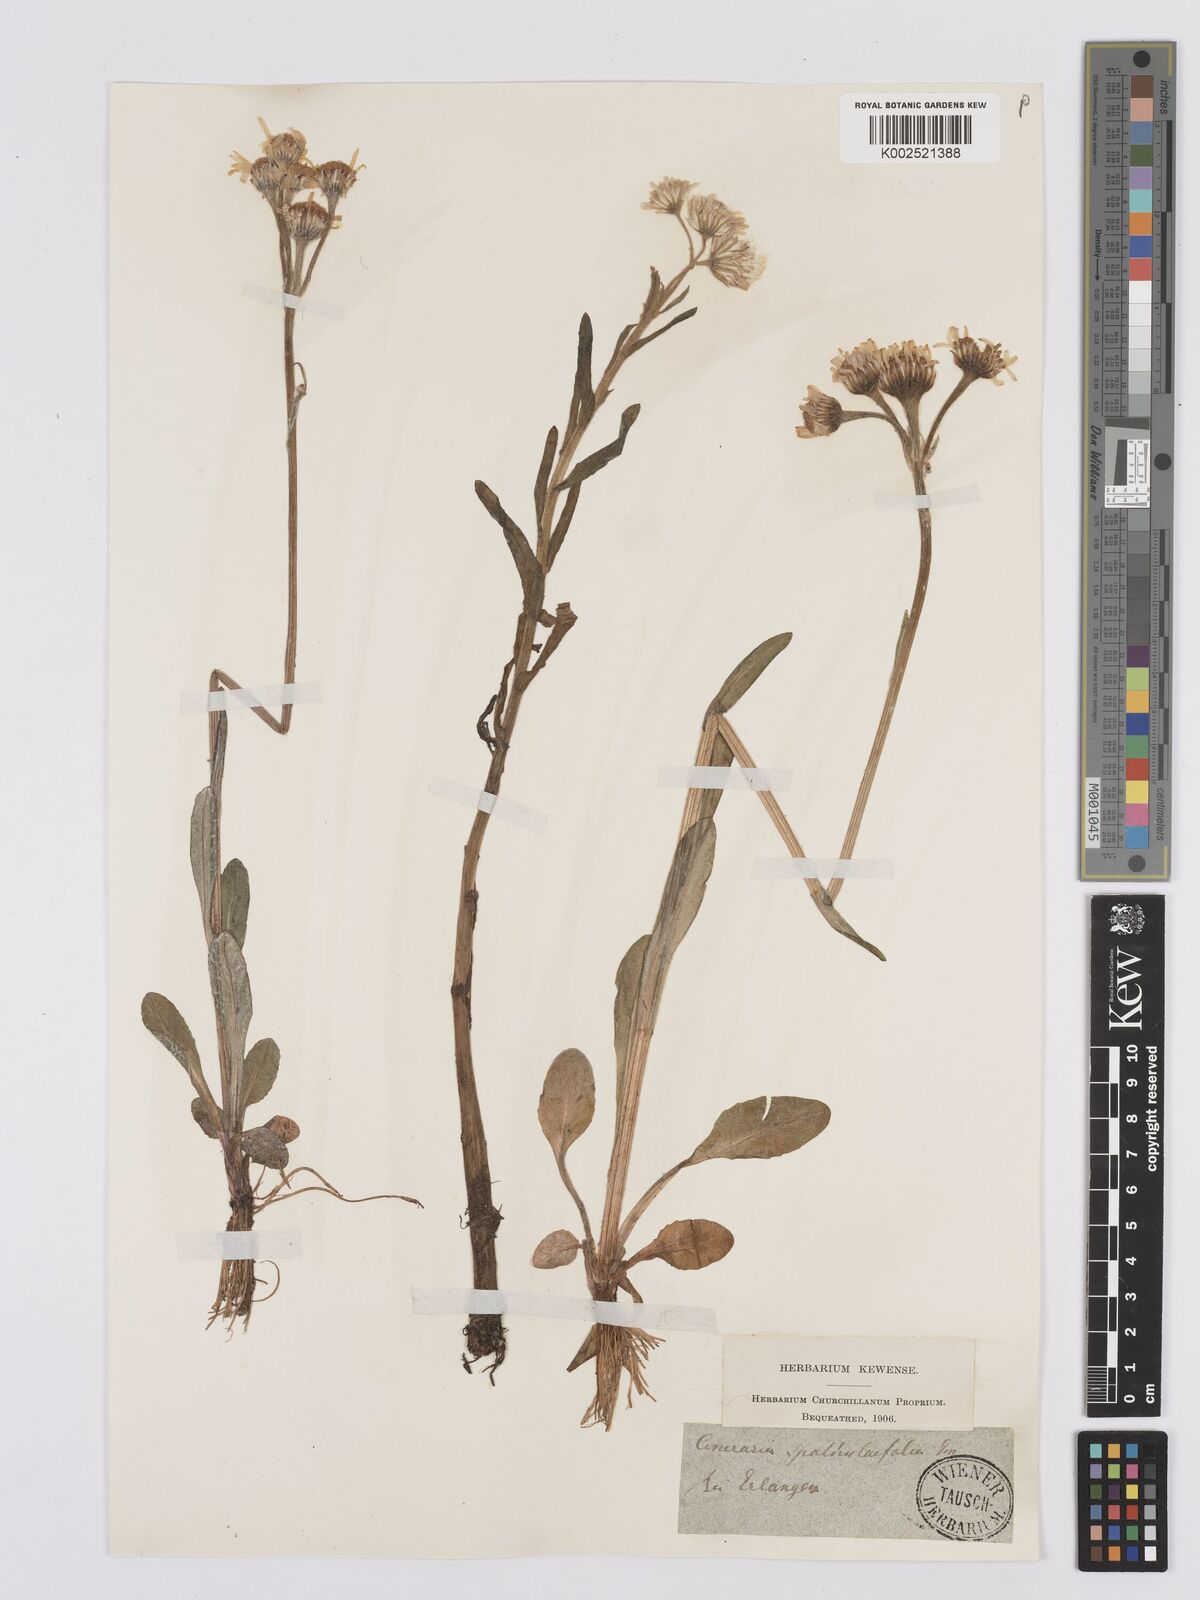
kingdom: Plantae
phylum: Tracheophyta
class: Magnoliopsida
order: Asterales
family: Asteraceae
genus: Tephroseris
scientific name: Tephroseris helenitis
